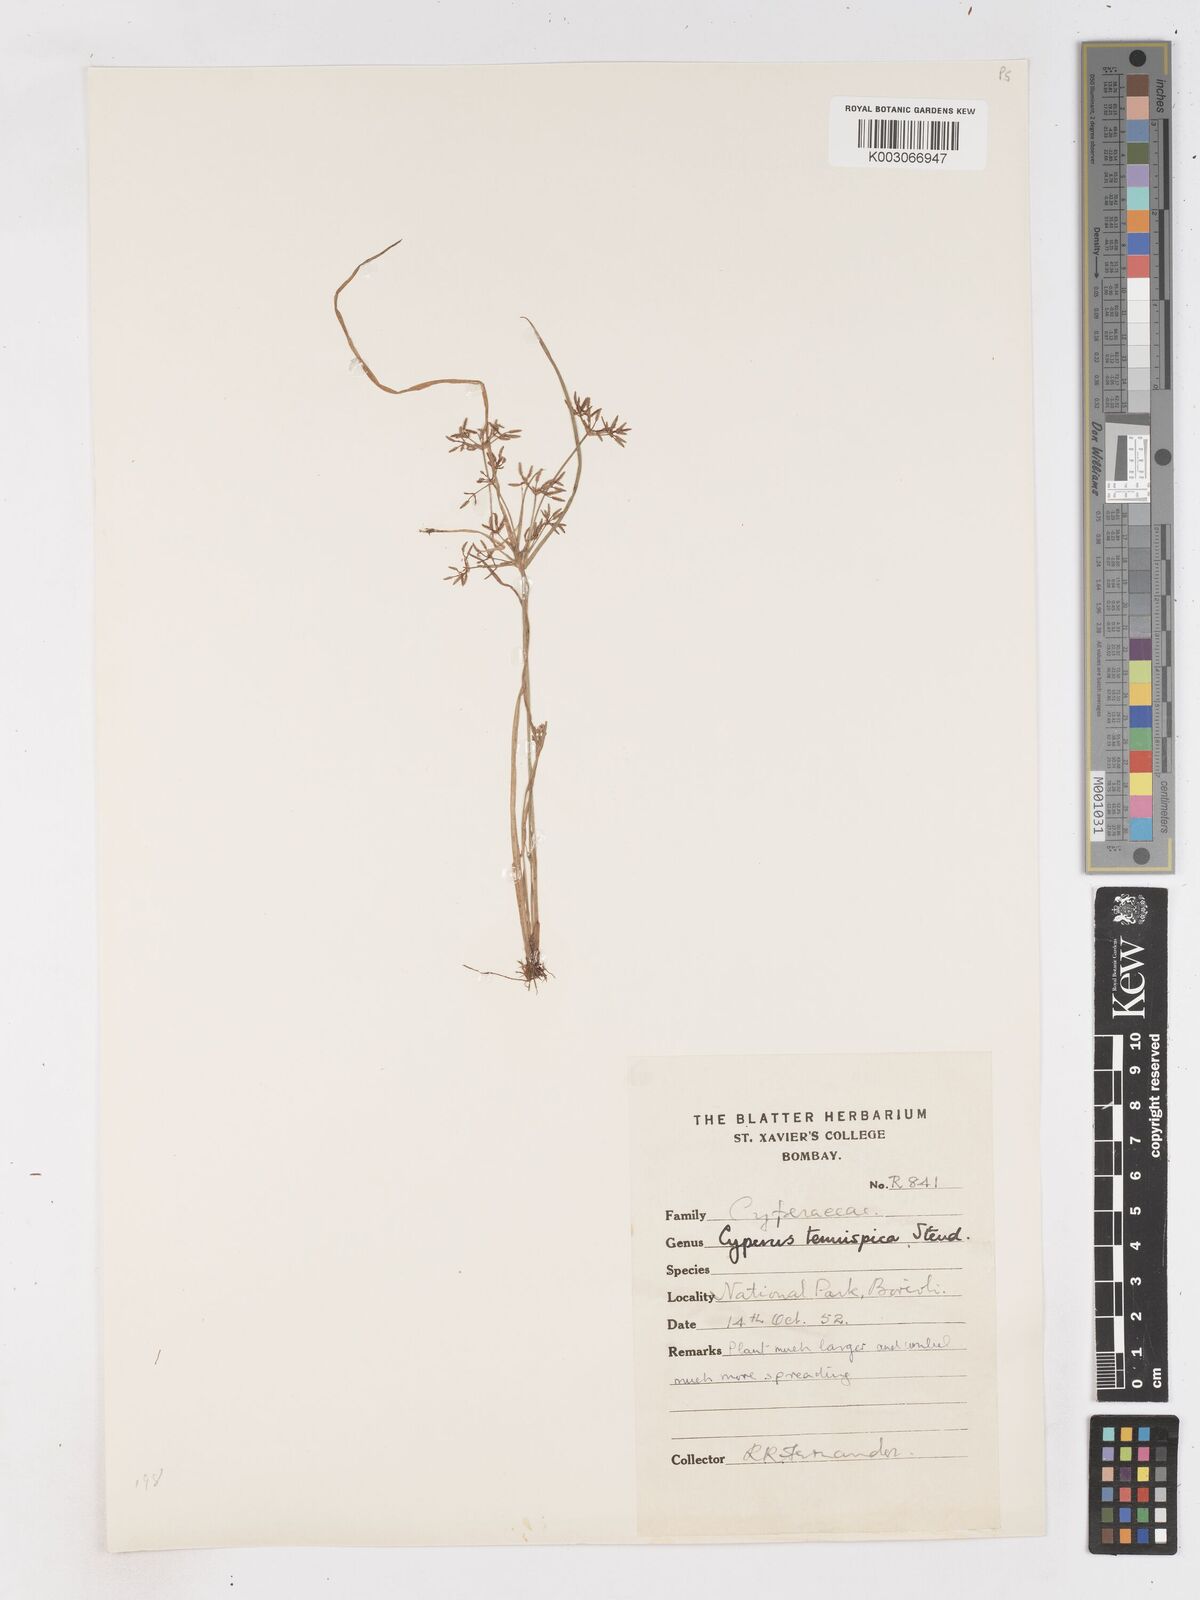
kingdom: Plantae
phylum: Tracheophyta
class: Liliopsida
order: Poales
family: Cyperaceae
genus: Cyperus
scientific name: Cyperus tenuispica
